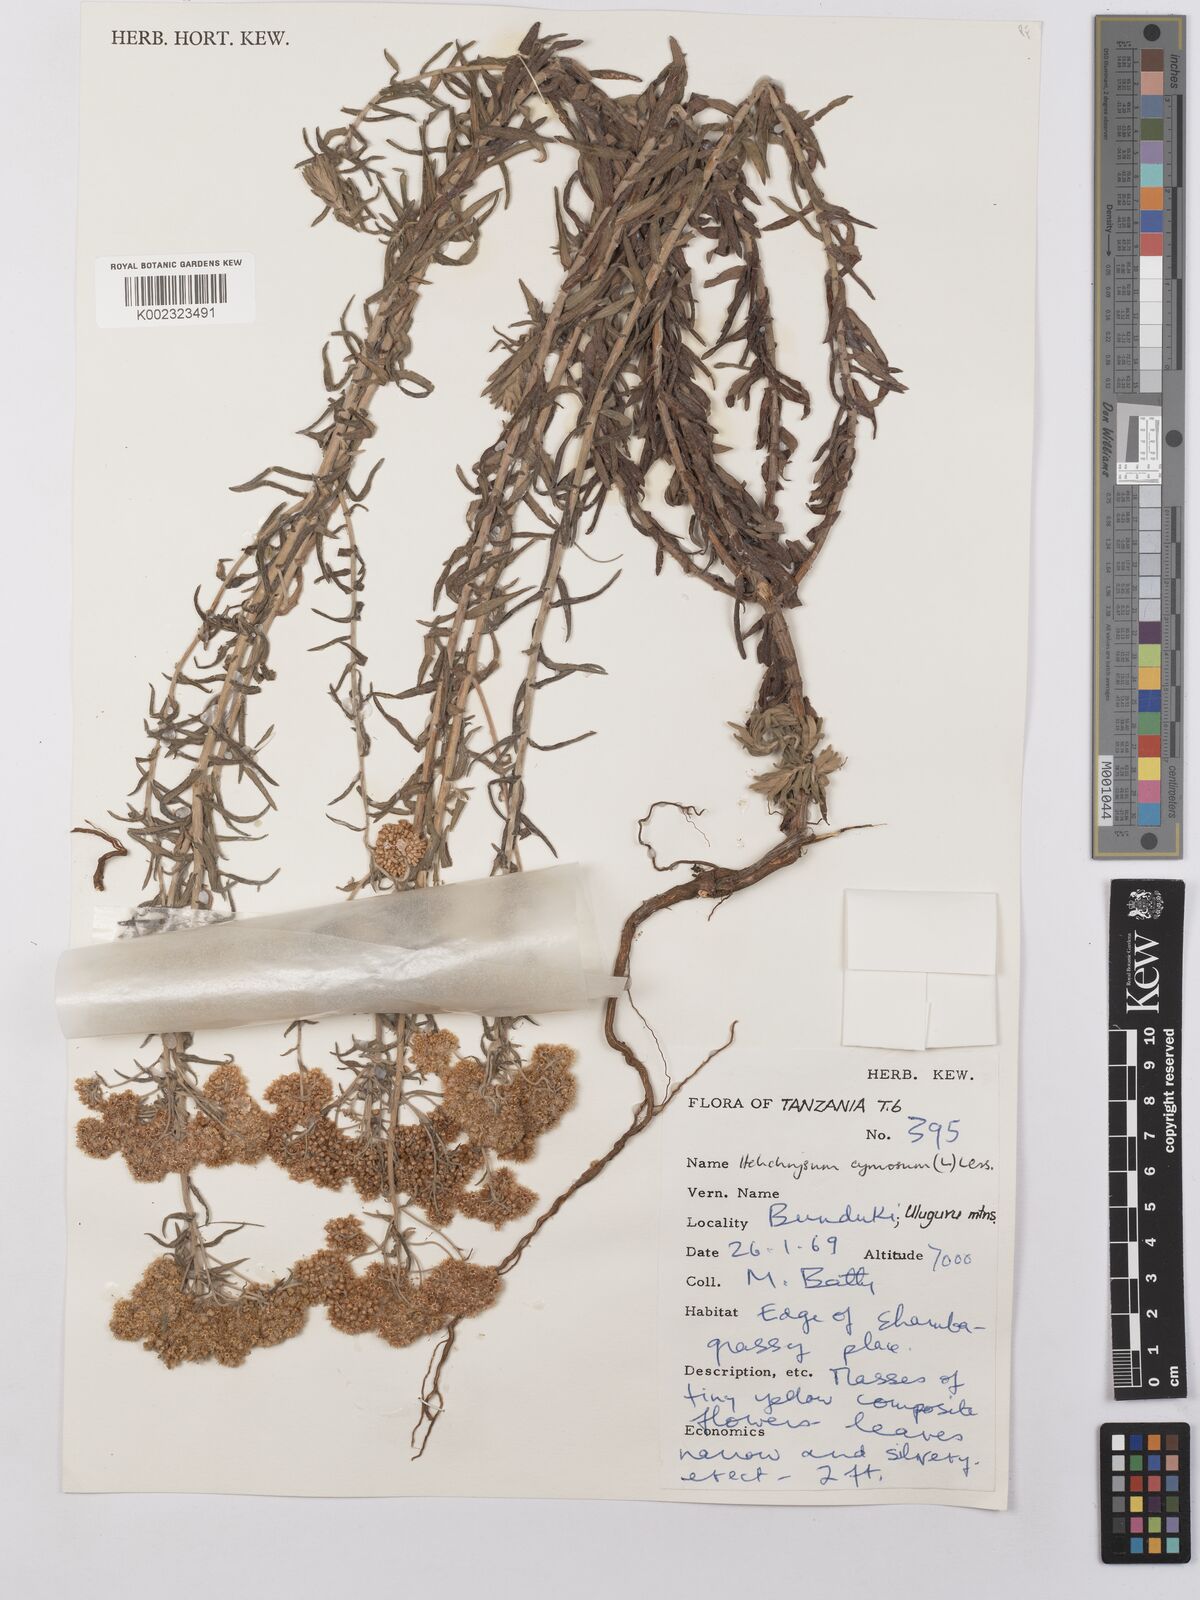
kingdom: Plantae
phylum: Tracheophyta
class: Magnoliopsida
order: Asterales
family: Asteraceae
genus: Helichrysum
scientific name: Helichrysum forskahlii
